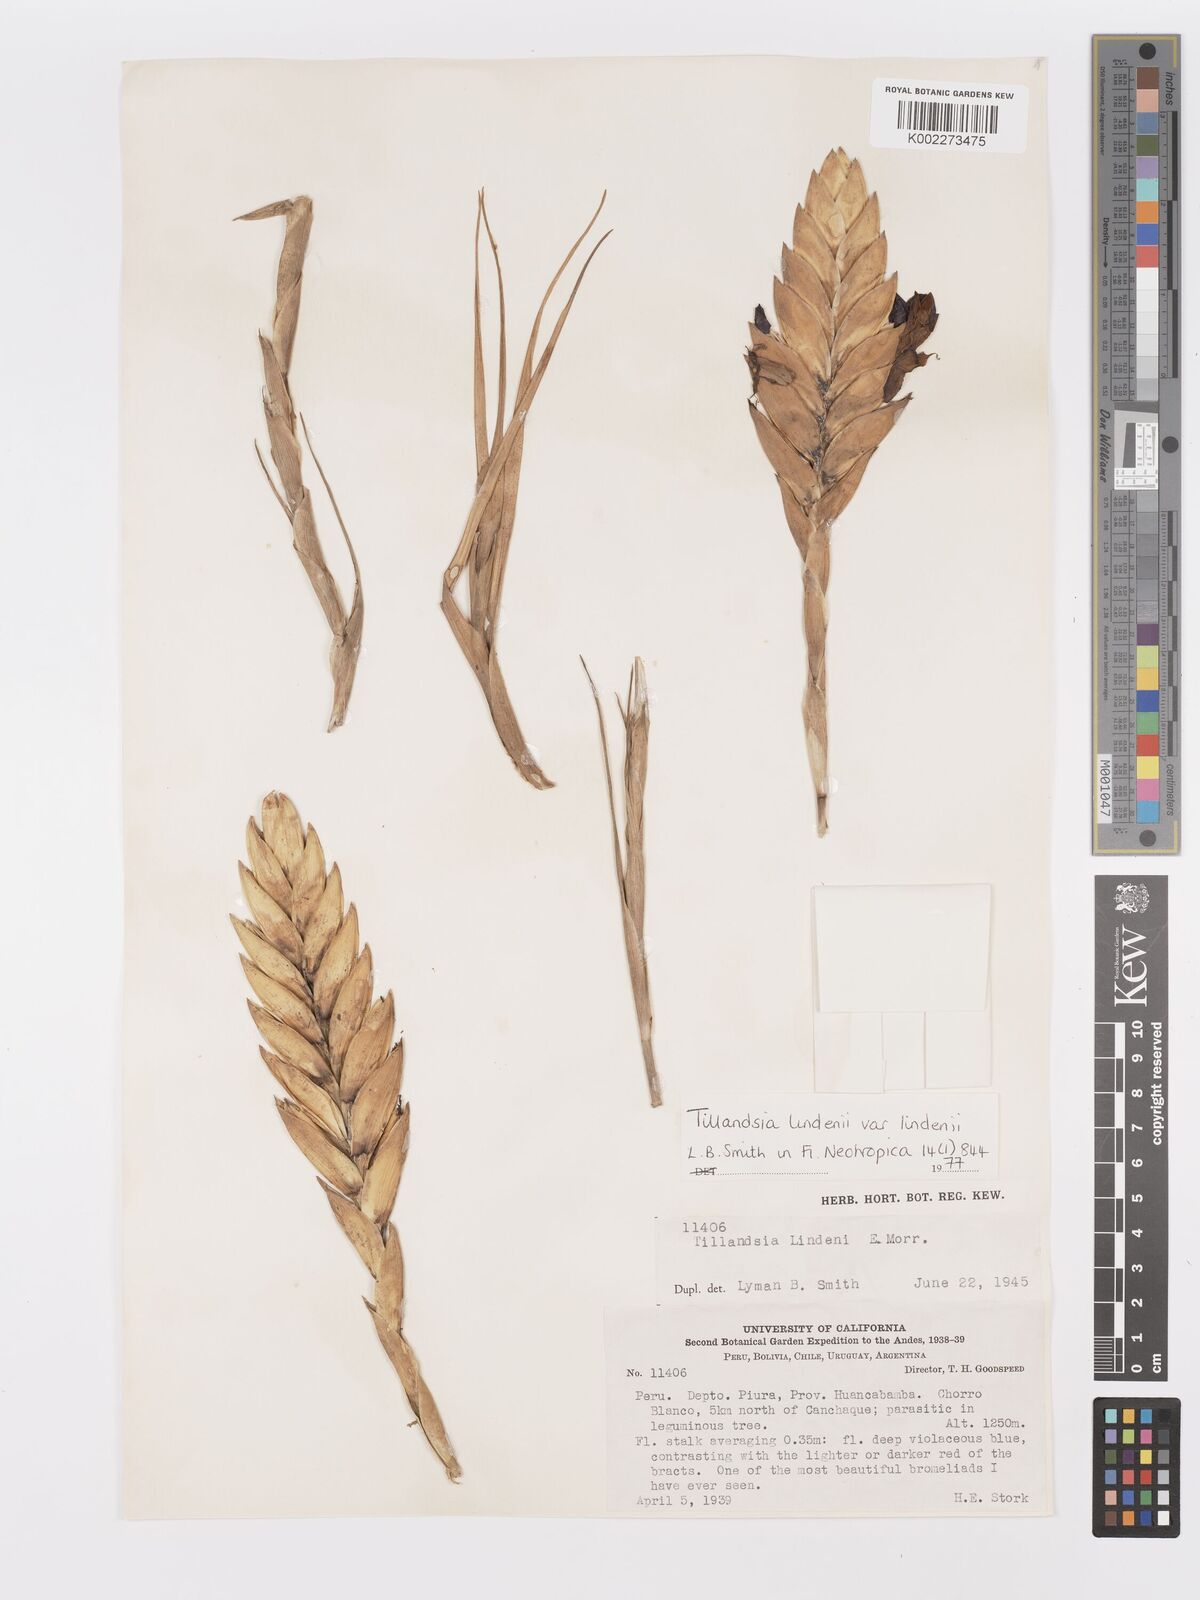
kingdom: Plantae
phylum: Tracheophyta
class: Liliopsida
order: Poales
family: Bromeliaceae
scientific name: Bromeliaceae
